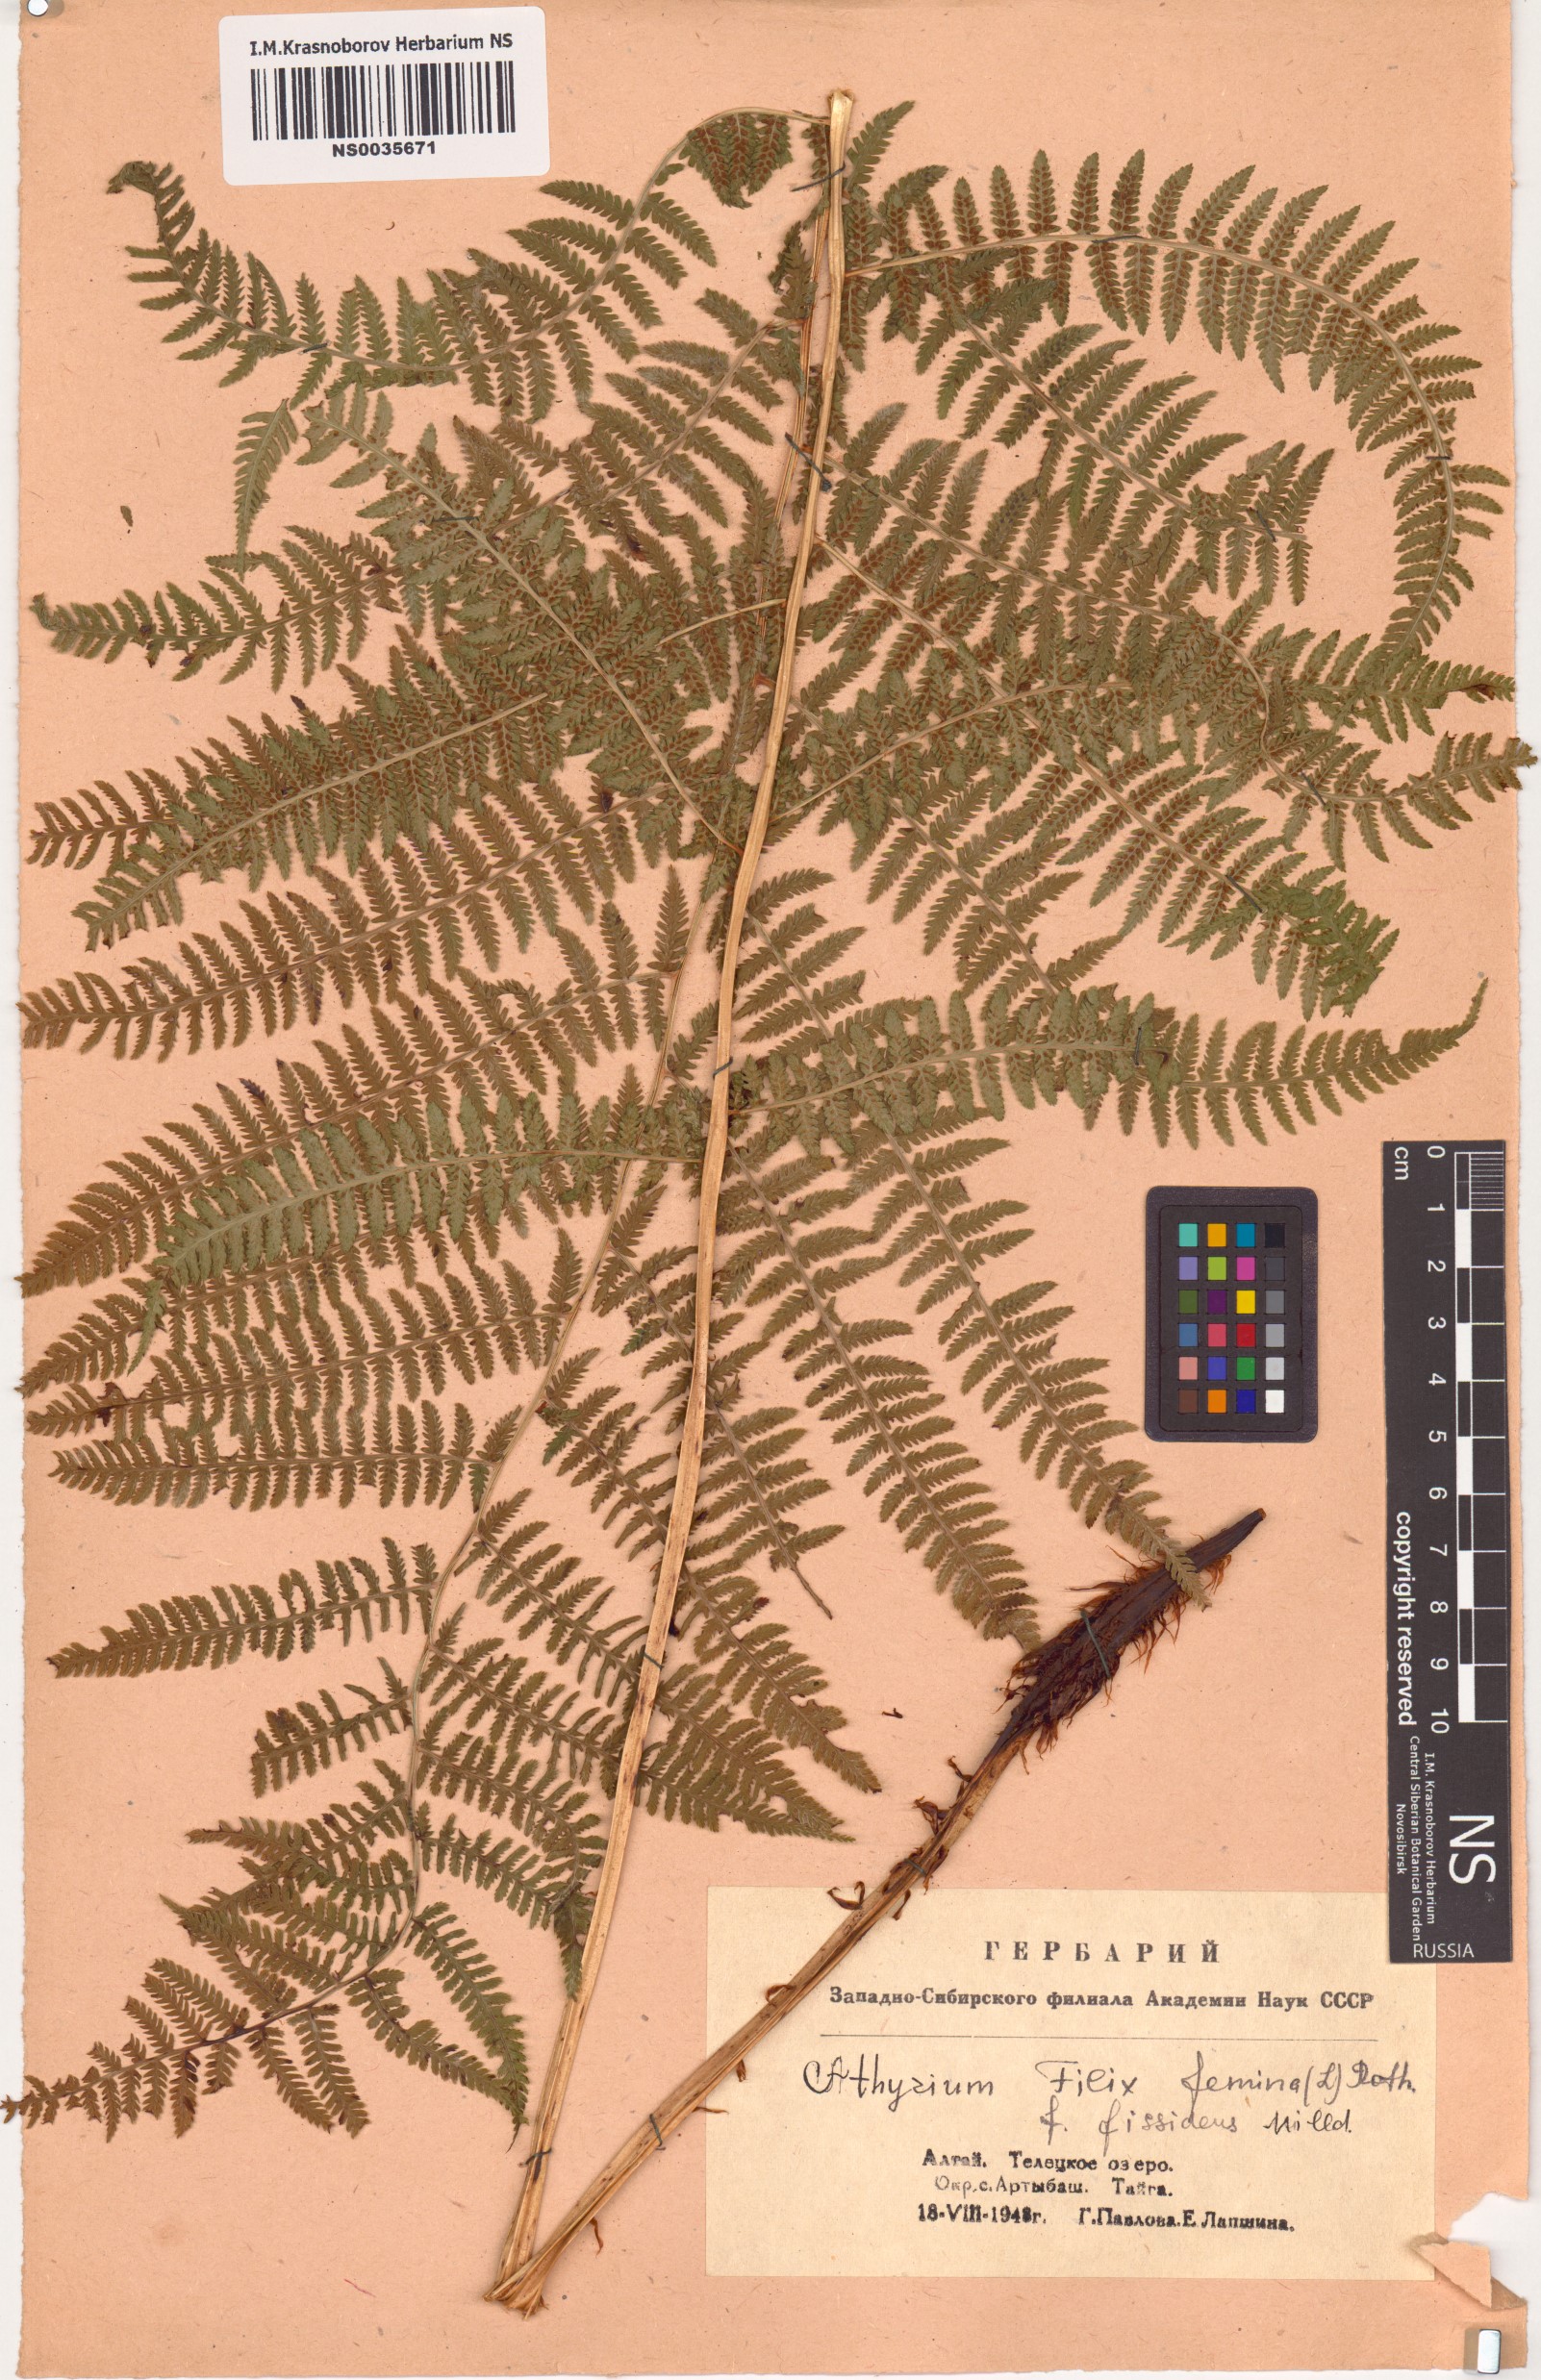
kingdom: Plantae
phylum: Tracheophyta
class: Polypodiopsida
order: Polypodiales
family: Athyriaceae
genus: Athyrium
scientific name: Athyrium filix-femina
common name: Lady fern
